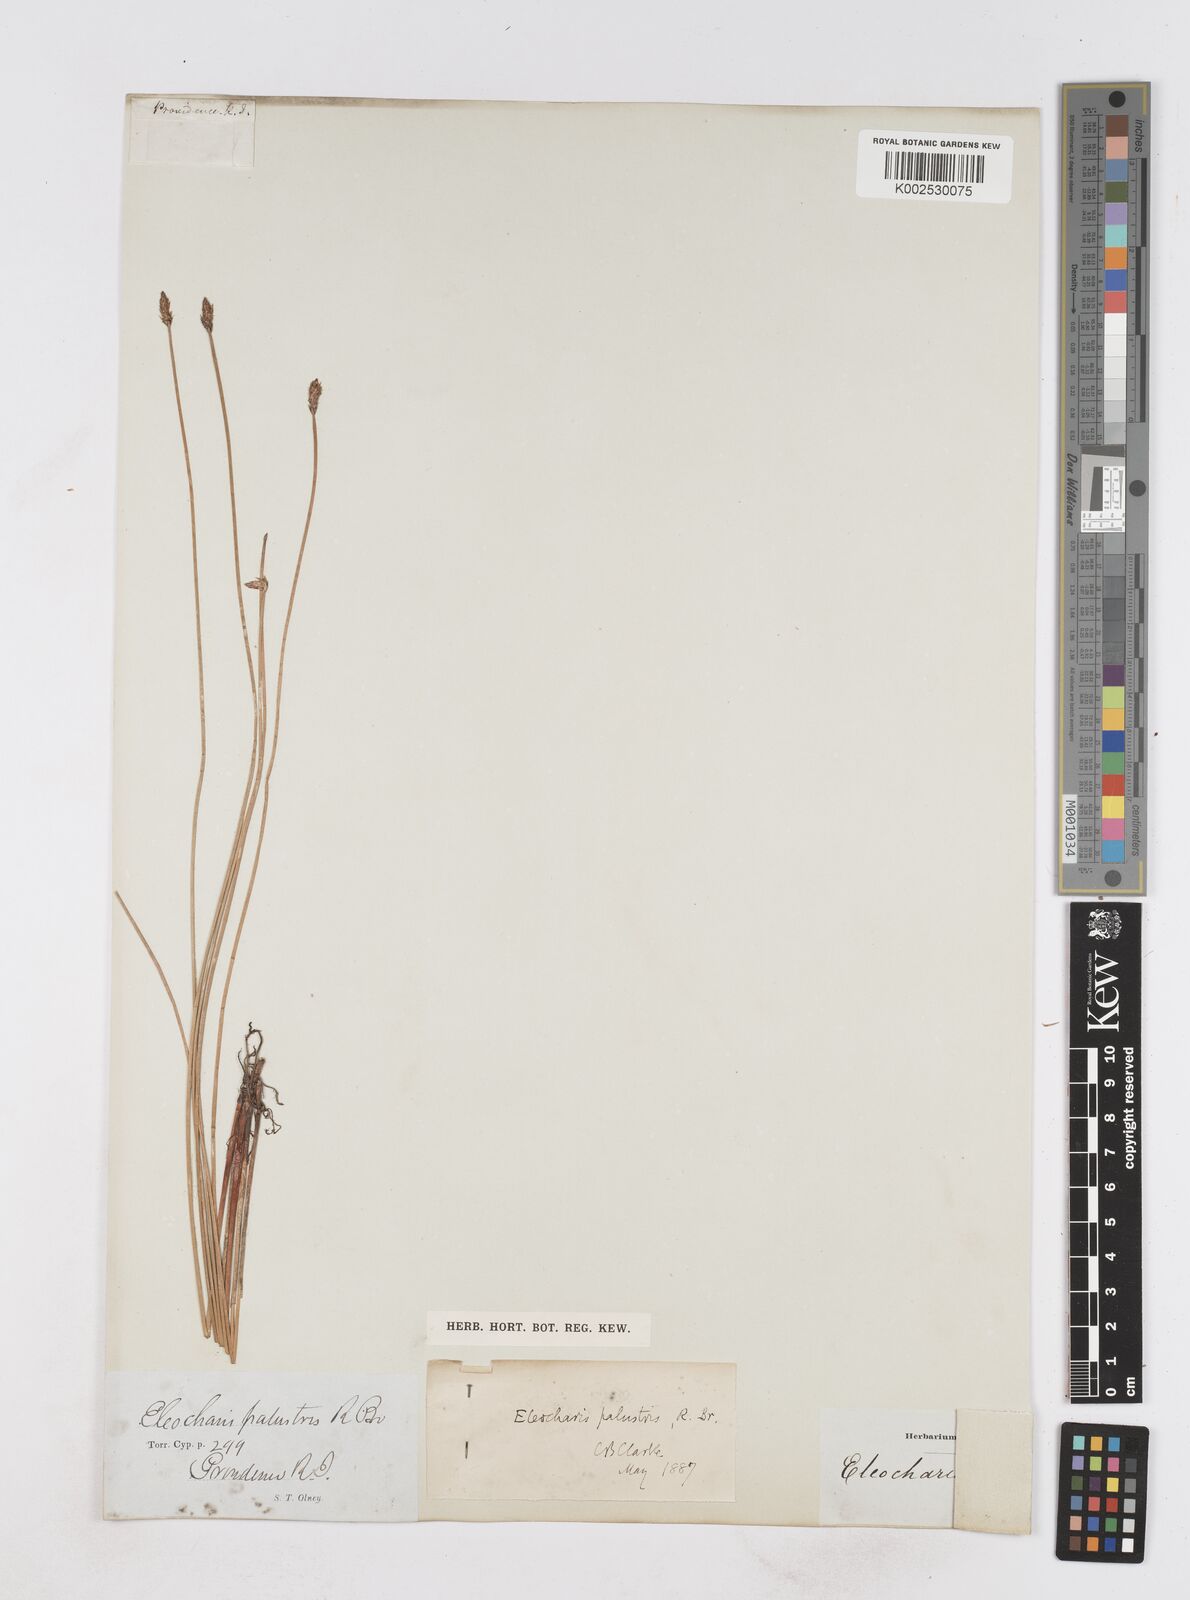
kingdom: Plantae
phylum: Tracheophyta
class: Liliopsida
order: Poales
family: Cyperaceae
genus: Eleocharis
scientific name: Eleocharis palustris
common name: Common spike-rush
